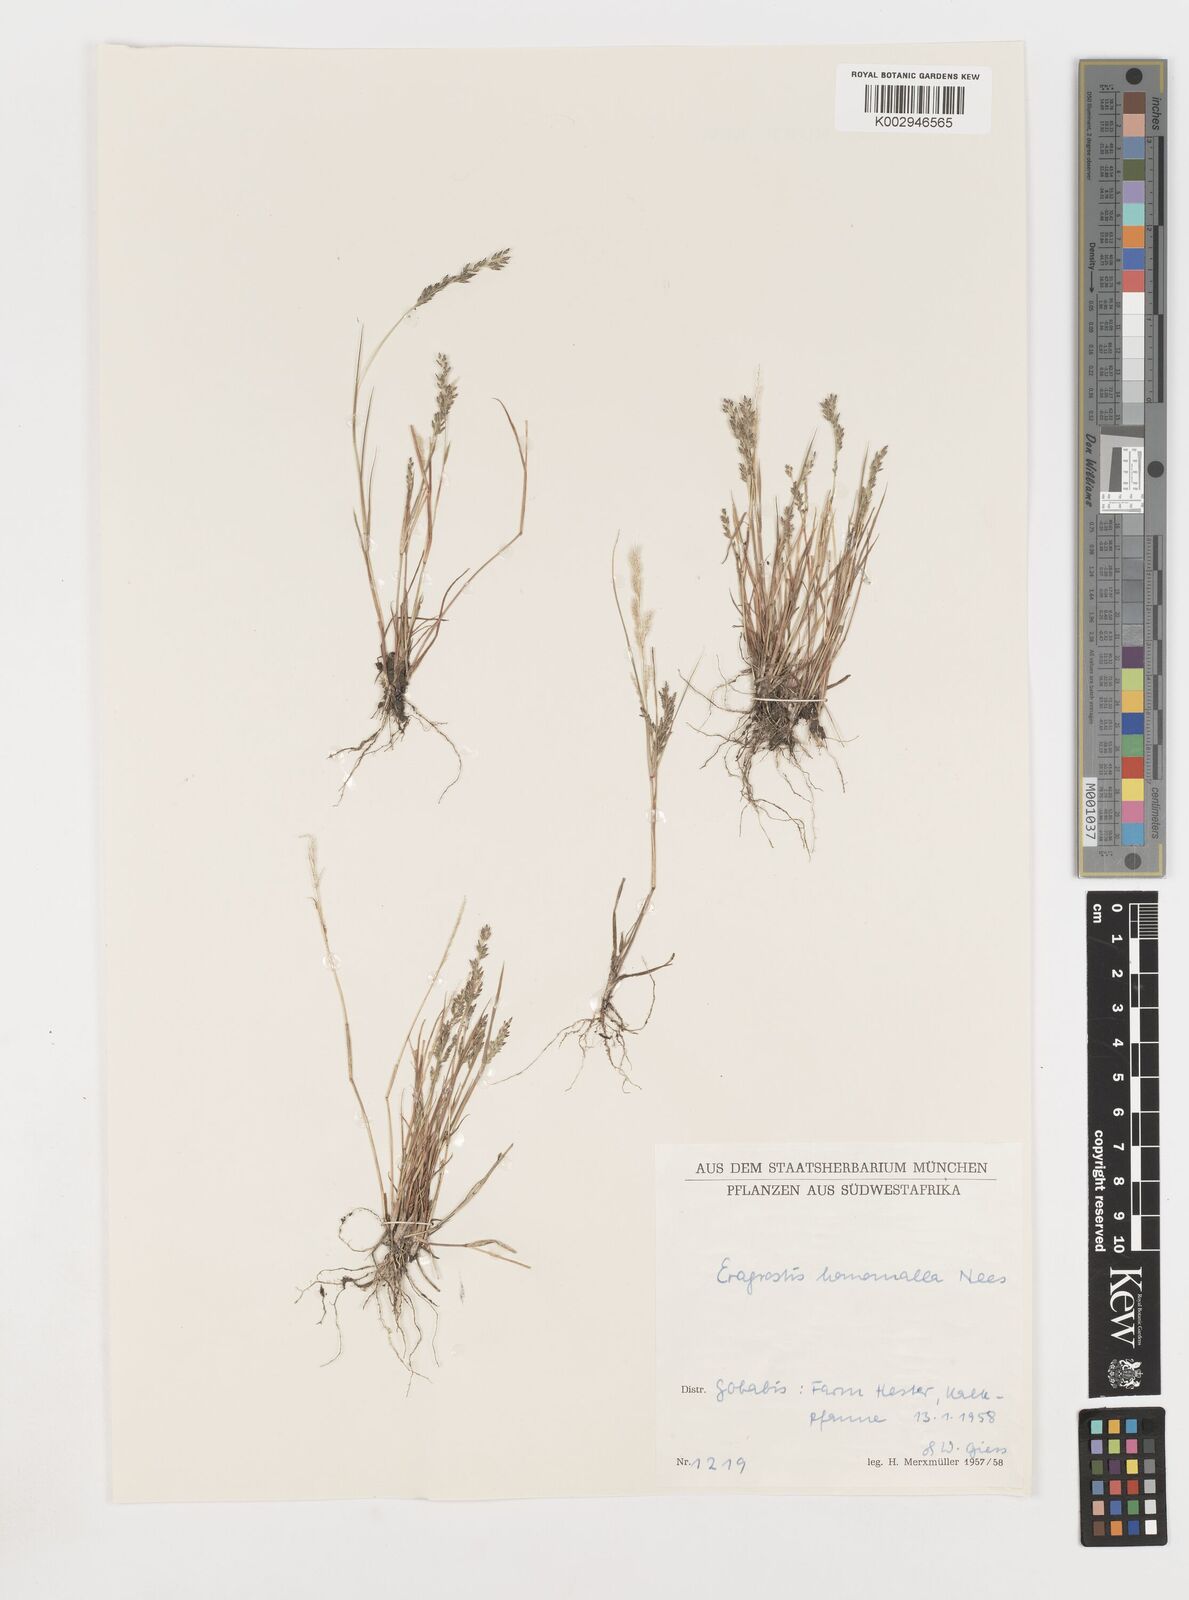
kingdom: Plantae
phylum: Tracheophyta
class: Liliopsida
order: Poales
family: Poaceae
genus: Eragrostis
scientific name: Eragrostis homomalla
